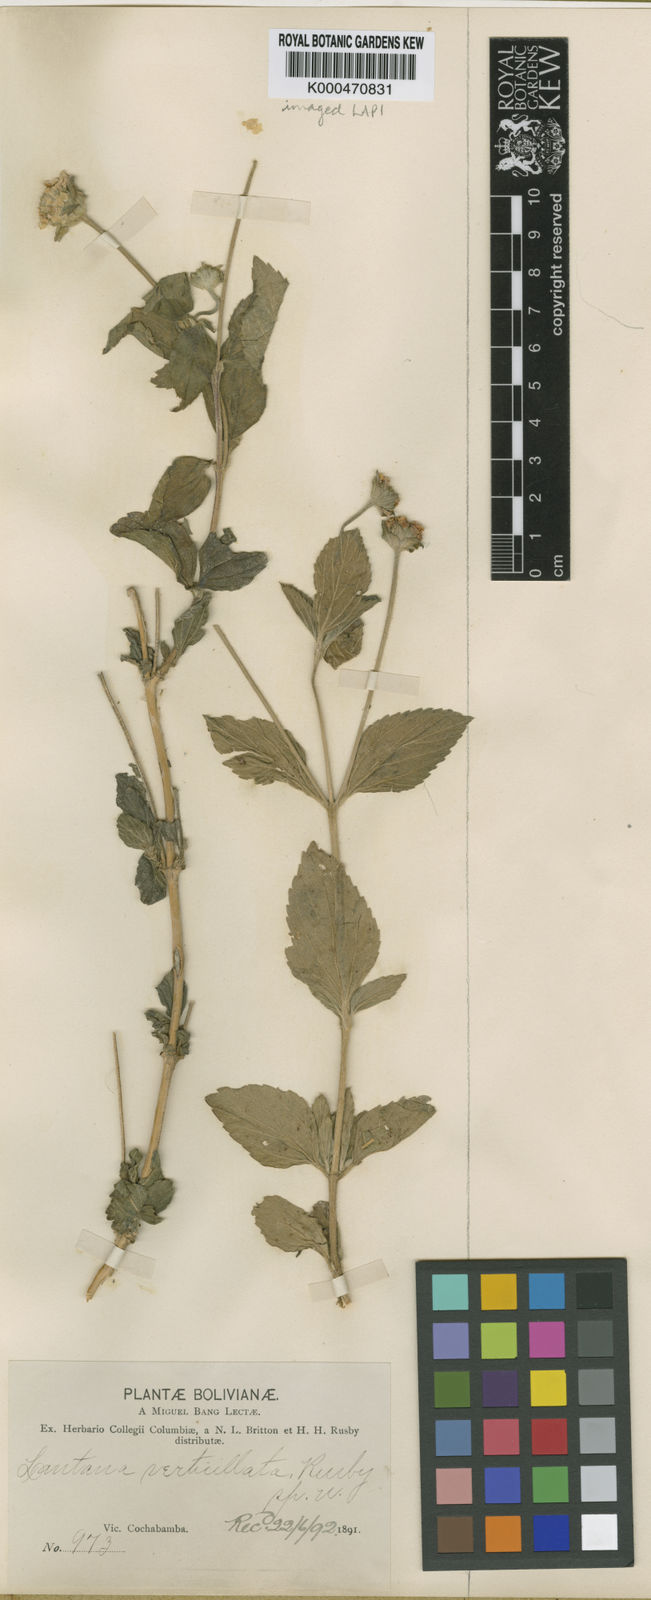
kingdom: Plantae
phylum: Tracheophyta
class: Magnoliopsida
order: Lamiales
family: Verbenaceae
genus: Lantana
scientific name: Lantana
